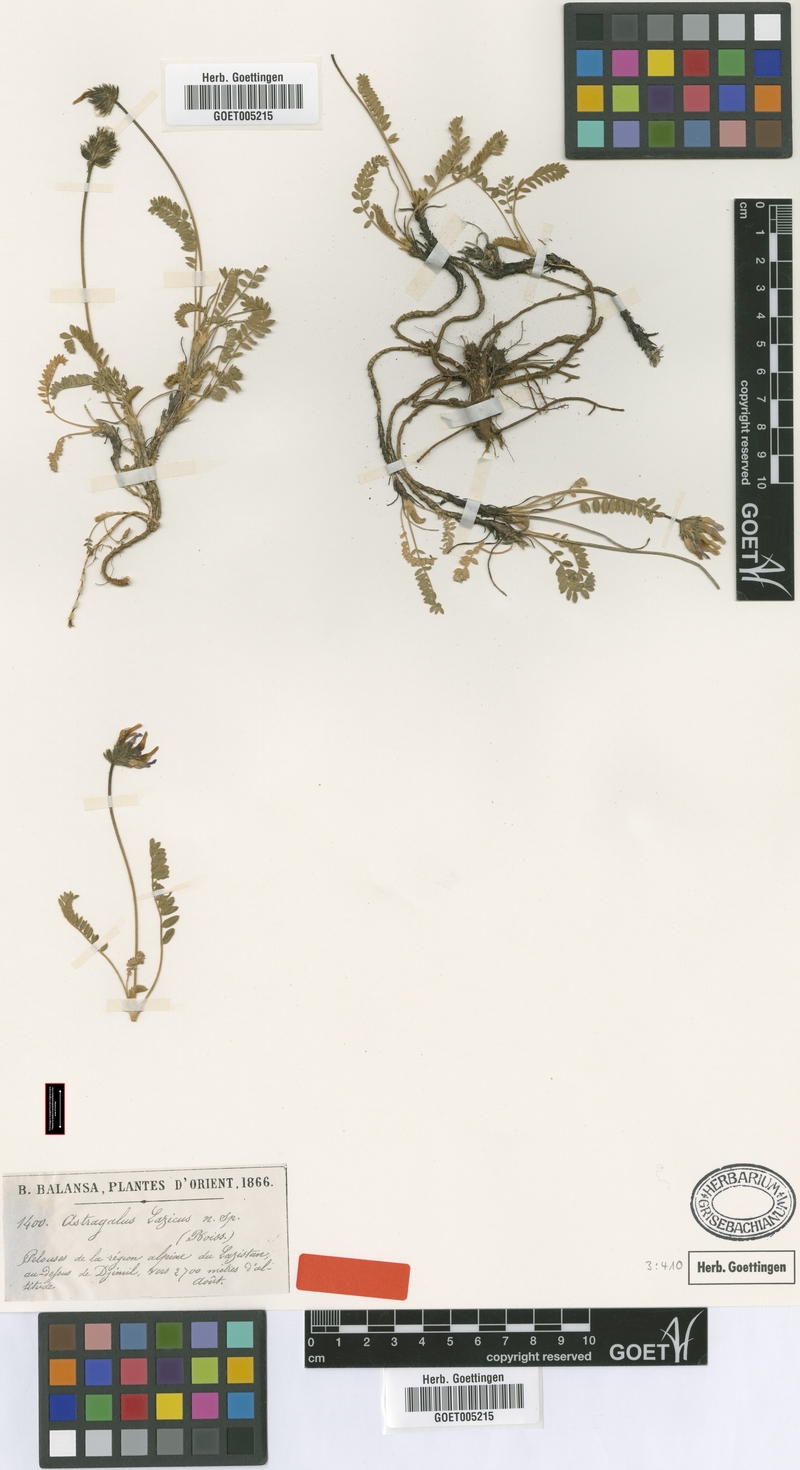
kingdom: Plantae
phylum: Tracheophyta
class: Magnoliopsida
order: Fabales
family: Fabaceae
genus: Oxytropis
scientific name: Oxytropis lazica
